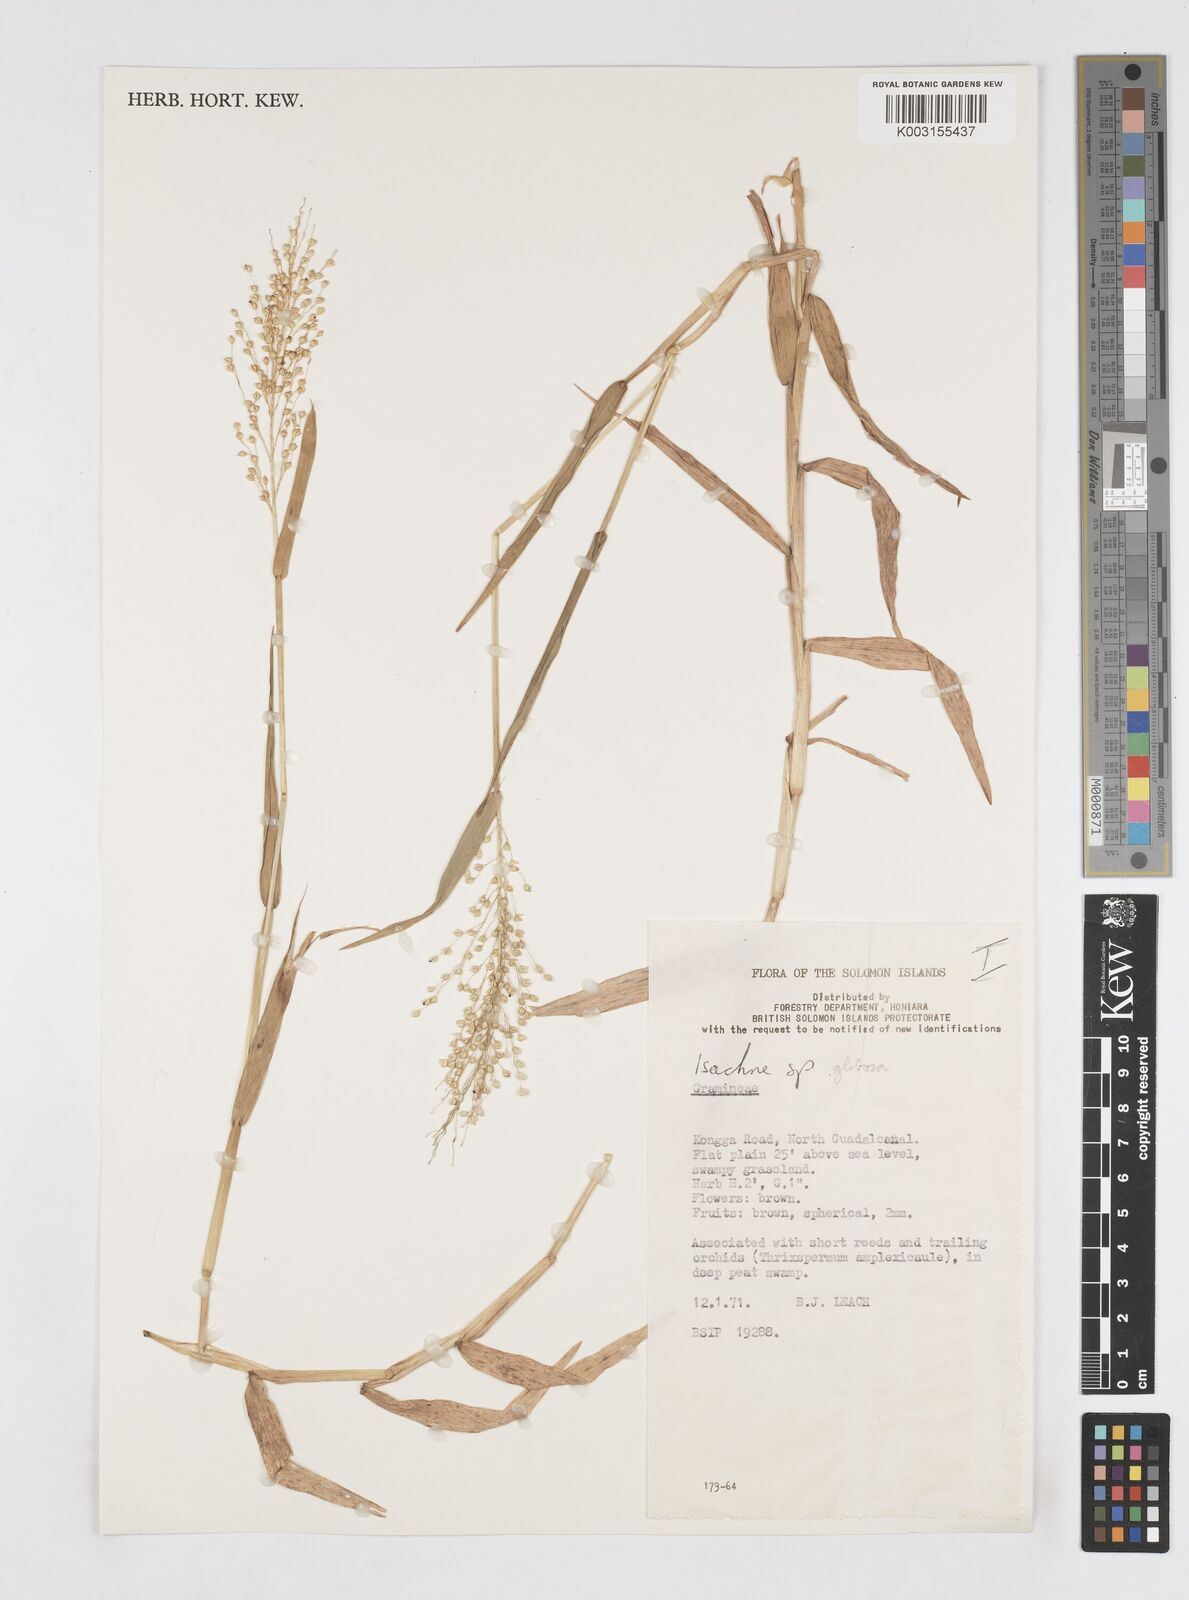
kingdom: Plantae
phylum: Tracheophyta
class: Liliopsida
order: Poales
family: Poaceae
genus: Isachne
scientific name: Isachne globosa
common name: Swamp millet
